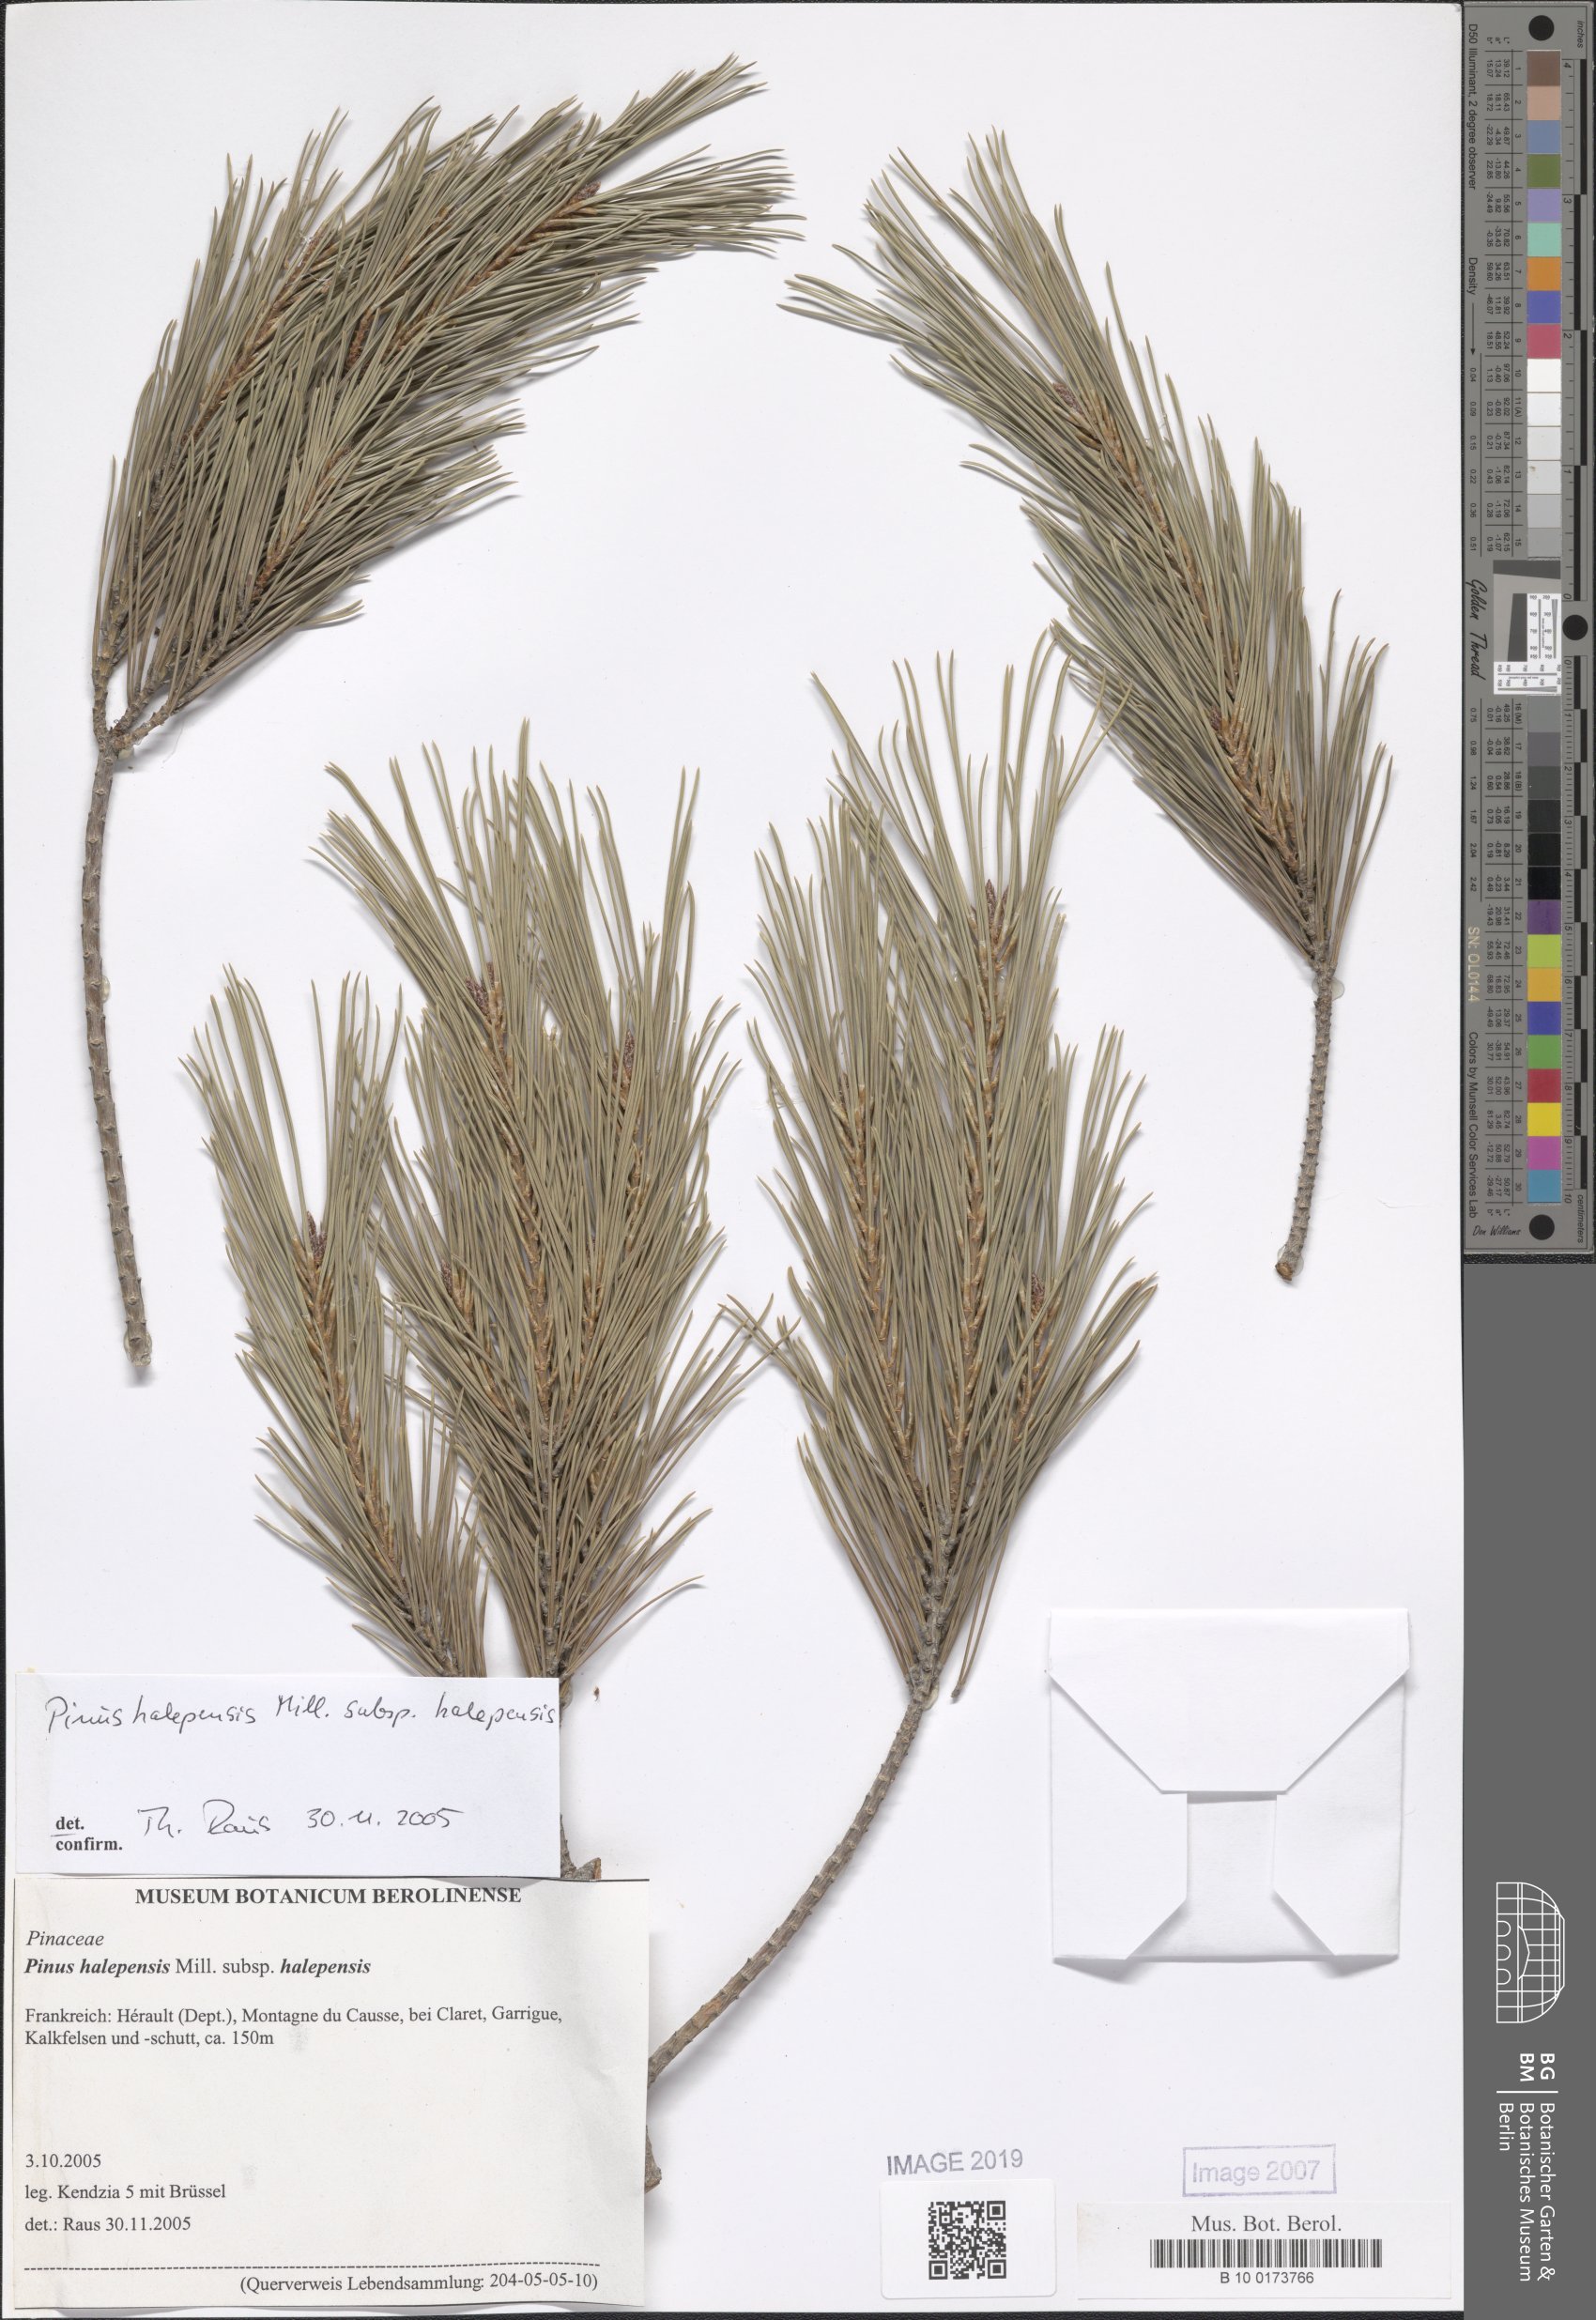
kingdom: Plantae
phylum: Tracheophyta
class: Pinopsida
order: Pinales
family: Pinaceae
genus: Pinus
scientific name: Pinus halepensis
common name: Aleppo pine
